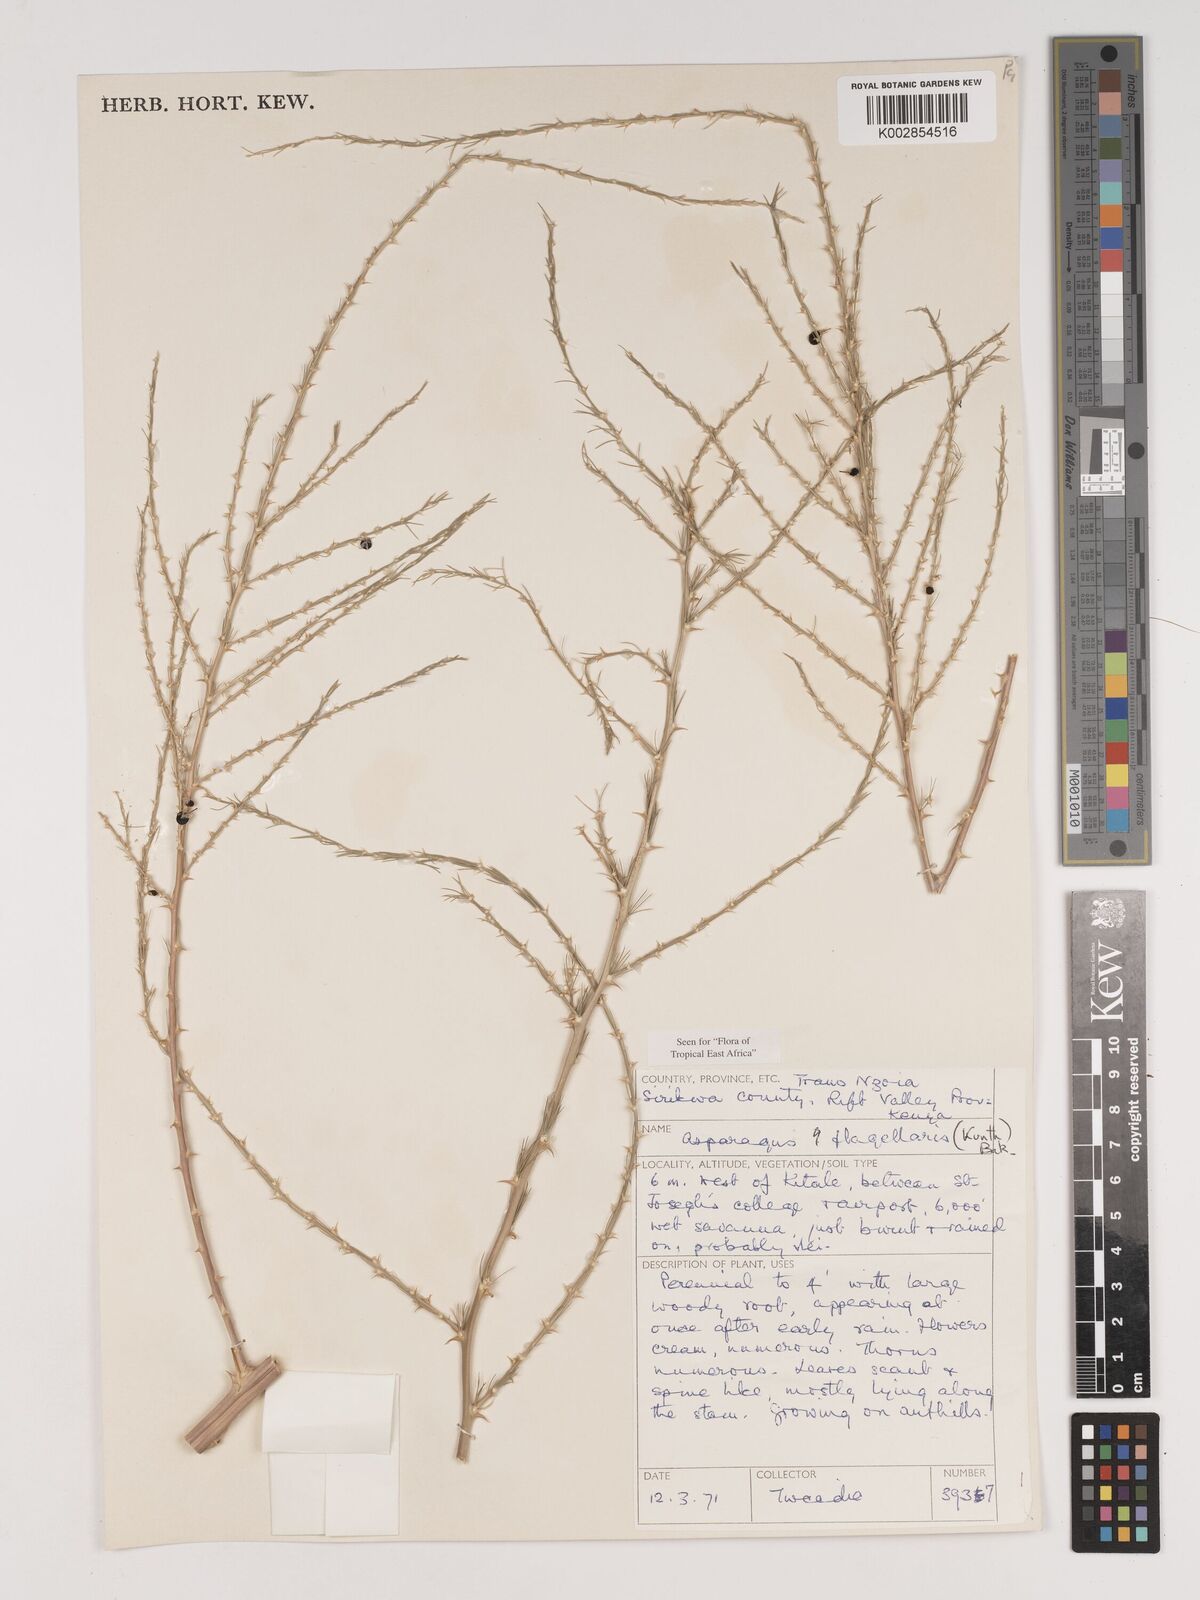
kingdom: Plantae
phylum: Tracheophyta
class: Liliopsida
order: Asparagales
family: Asparagaceae
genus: Asparagus
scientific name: Asparagus flagellaris
